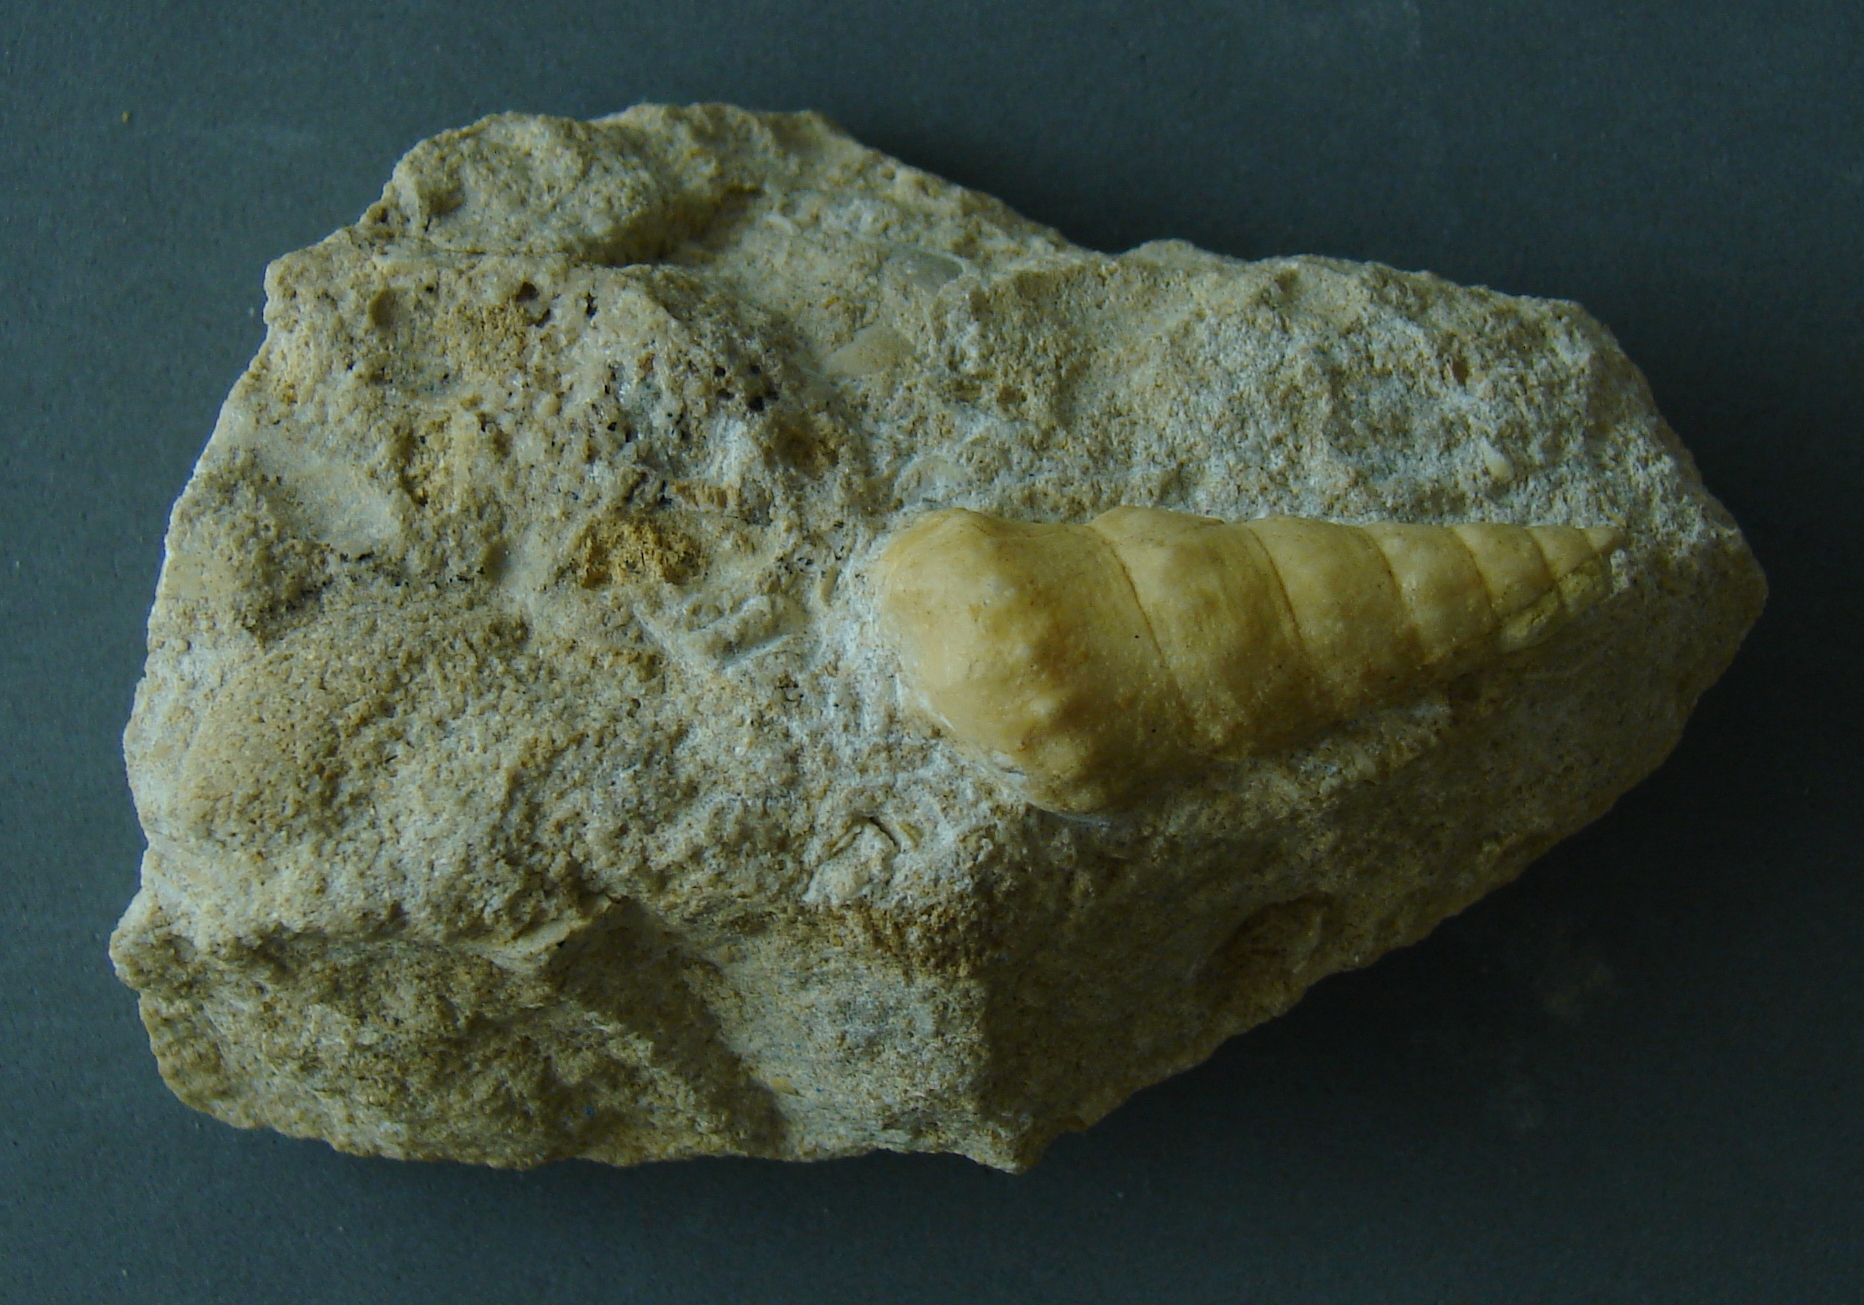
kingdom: Animalia
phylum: Mollusca
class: Gastropoda
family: Zygopleuridae
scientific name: Zygopleuridae
